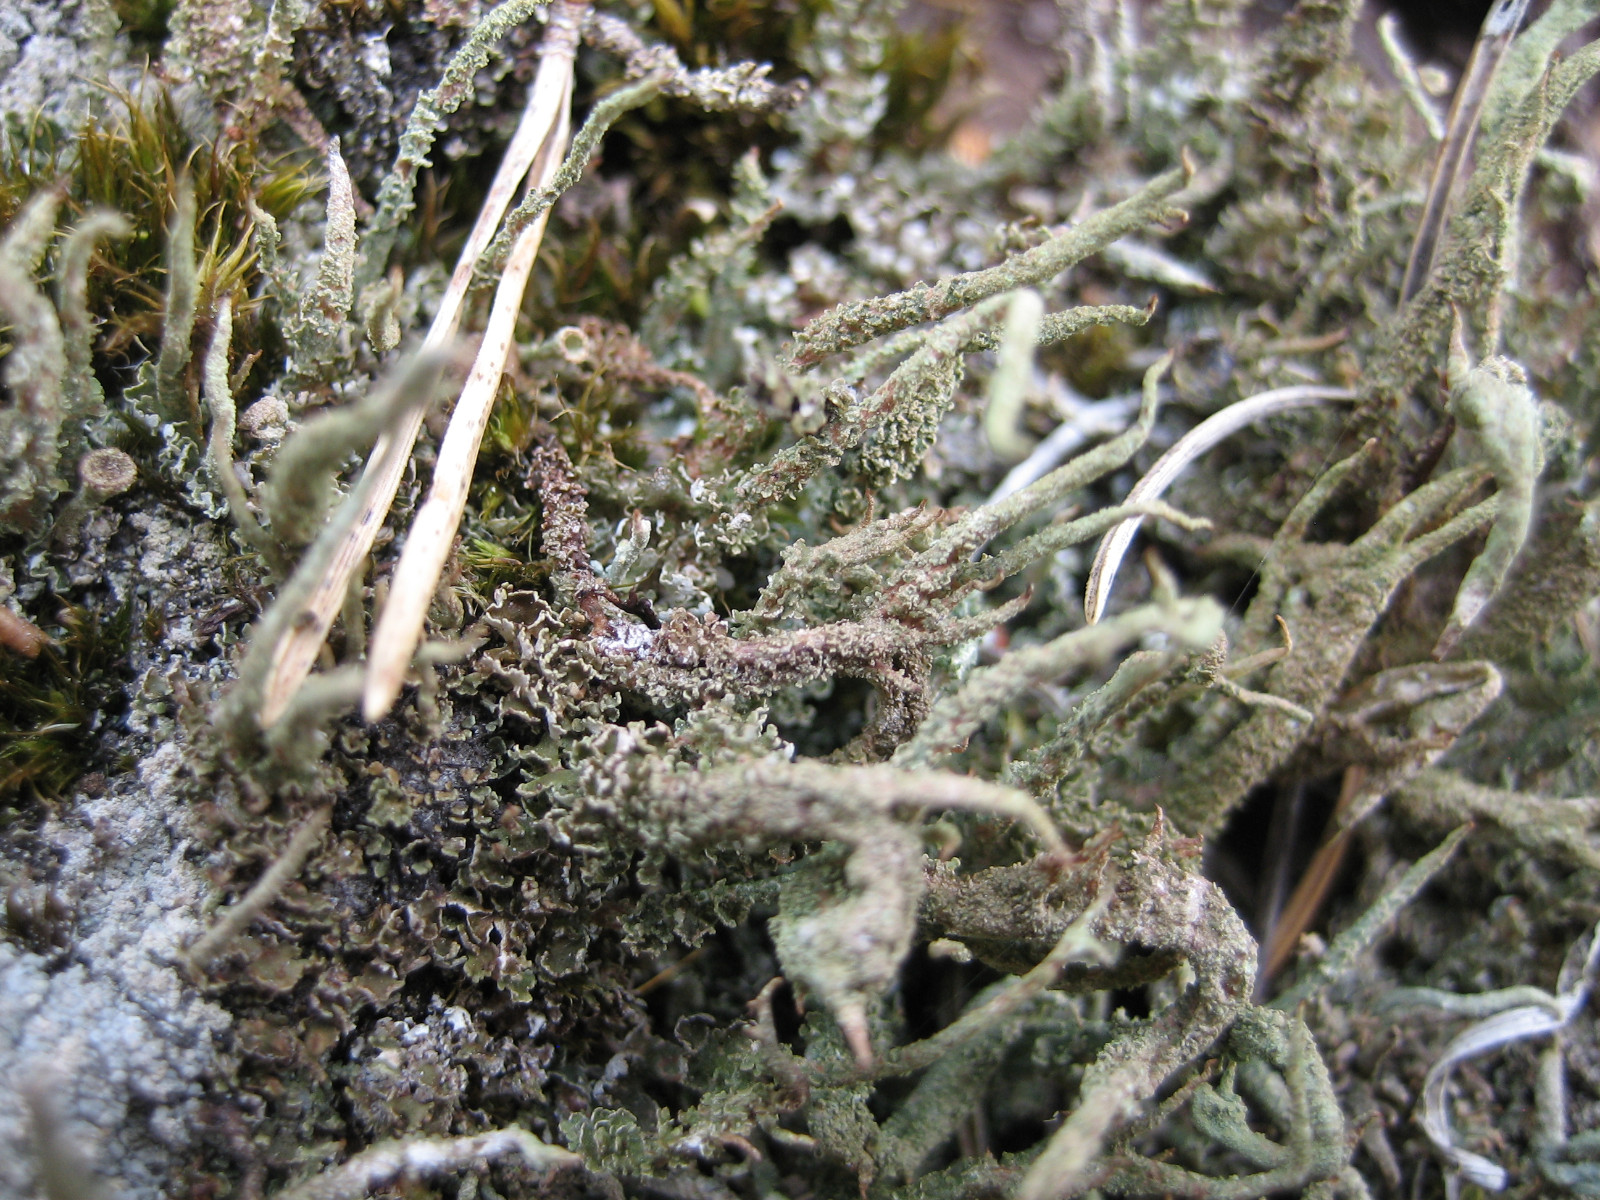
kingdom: Fungi
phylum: Ascomycota
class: Lecanoromycetes
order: Lecanorales
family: Cladoniaceae
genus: Cladonia
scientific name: Cladonia glauca
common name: grågrøn bægerlav
